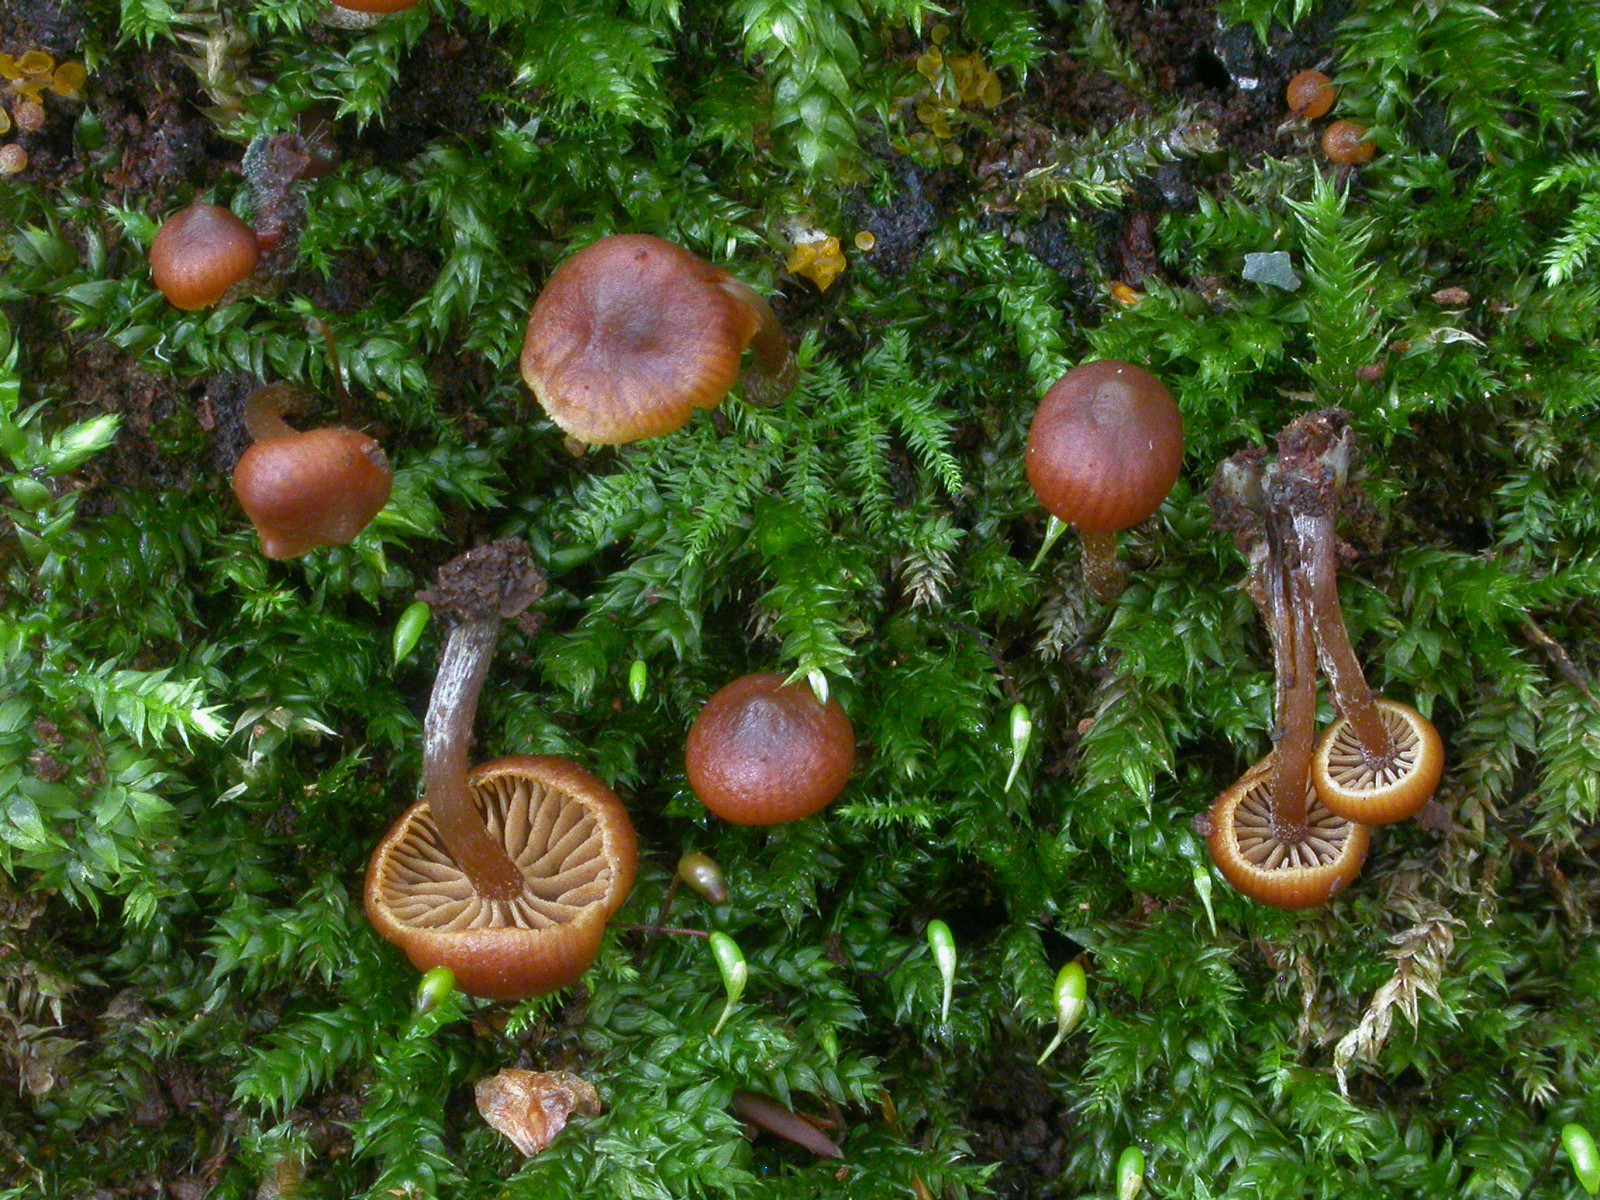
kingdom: Fungi
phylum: Basidiomycota
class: Agaricomycetes
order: Agaricales
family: Hymenogastraceae
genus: Galerina
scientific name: Galerina heimansii
